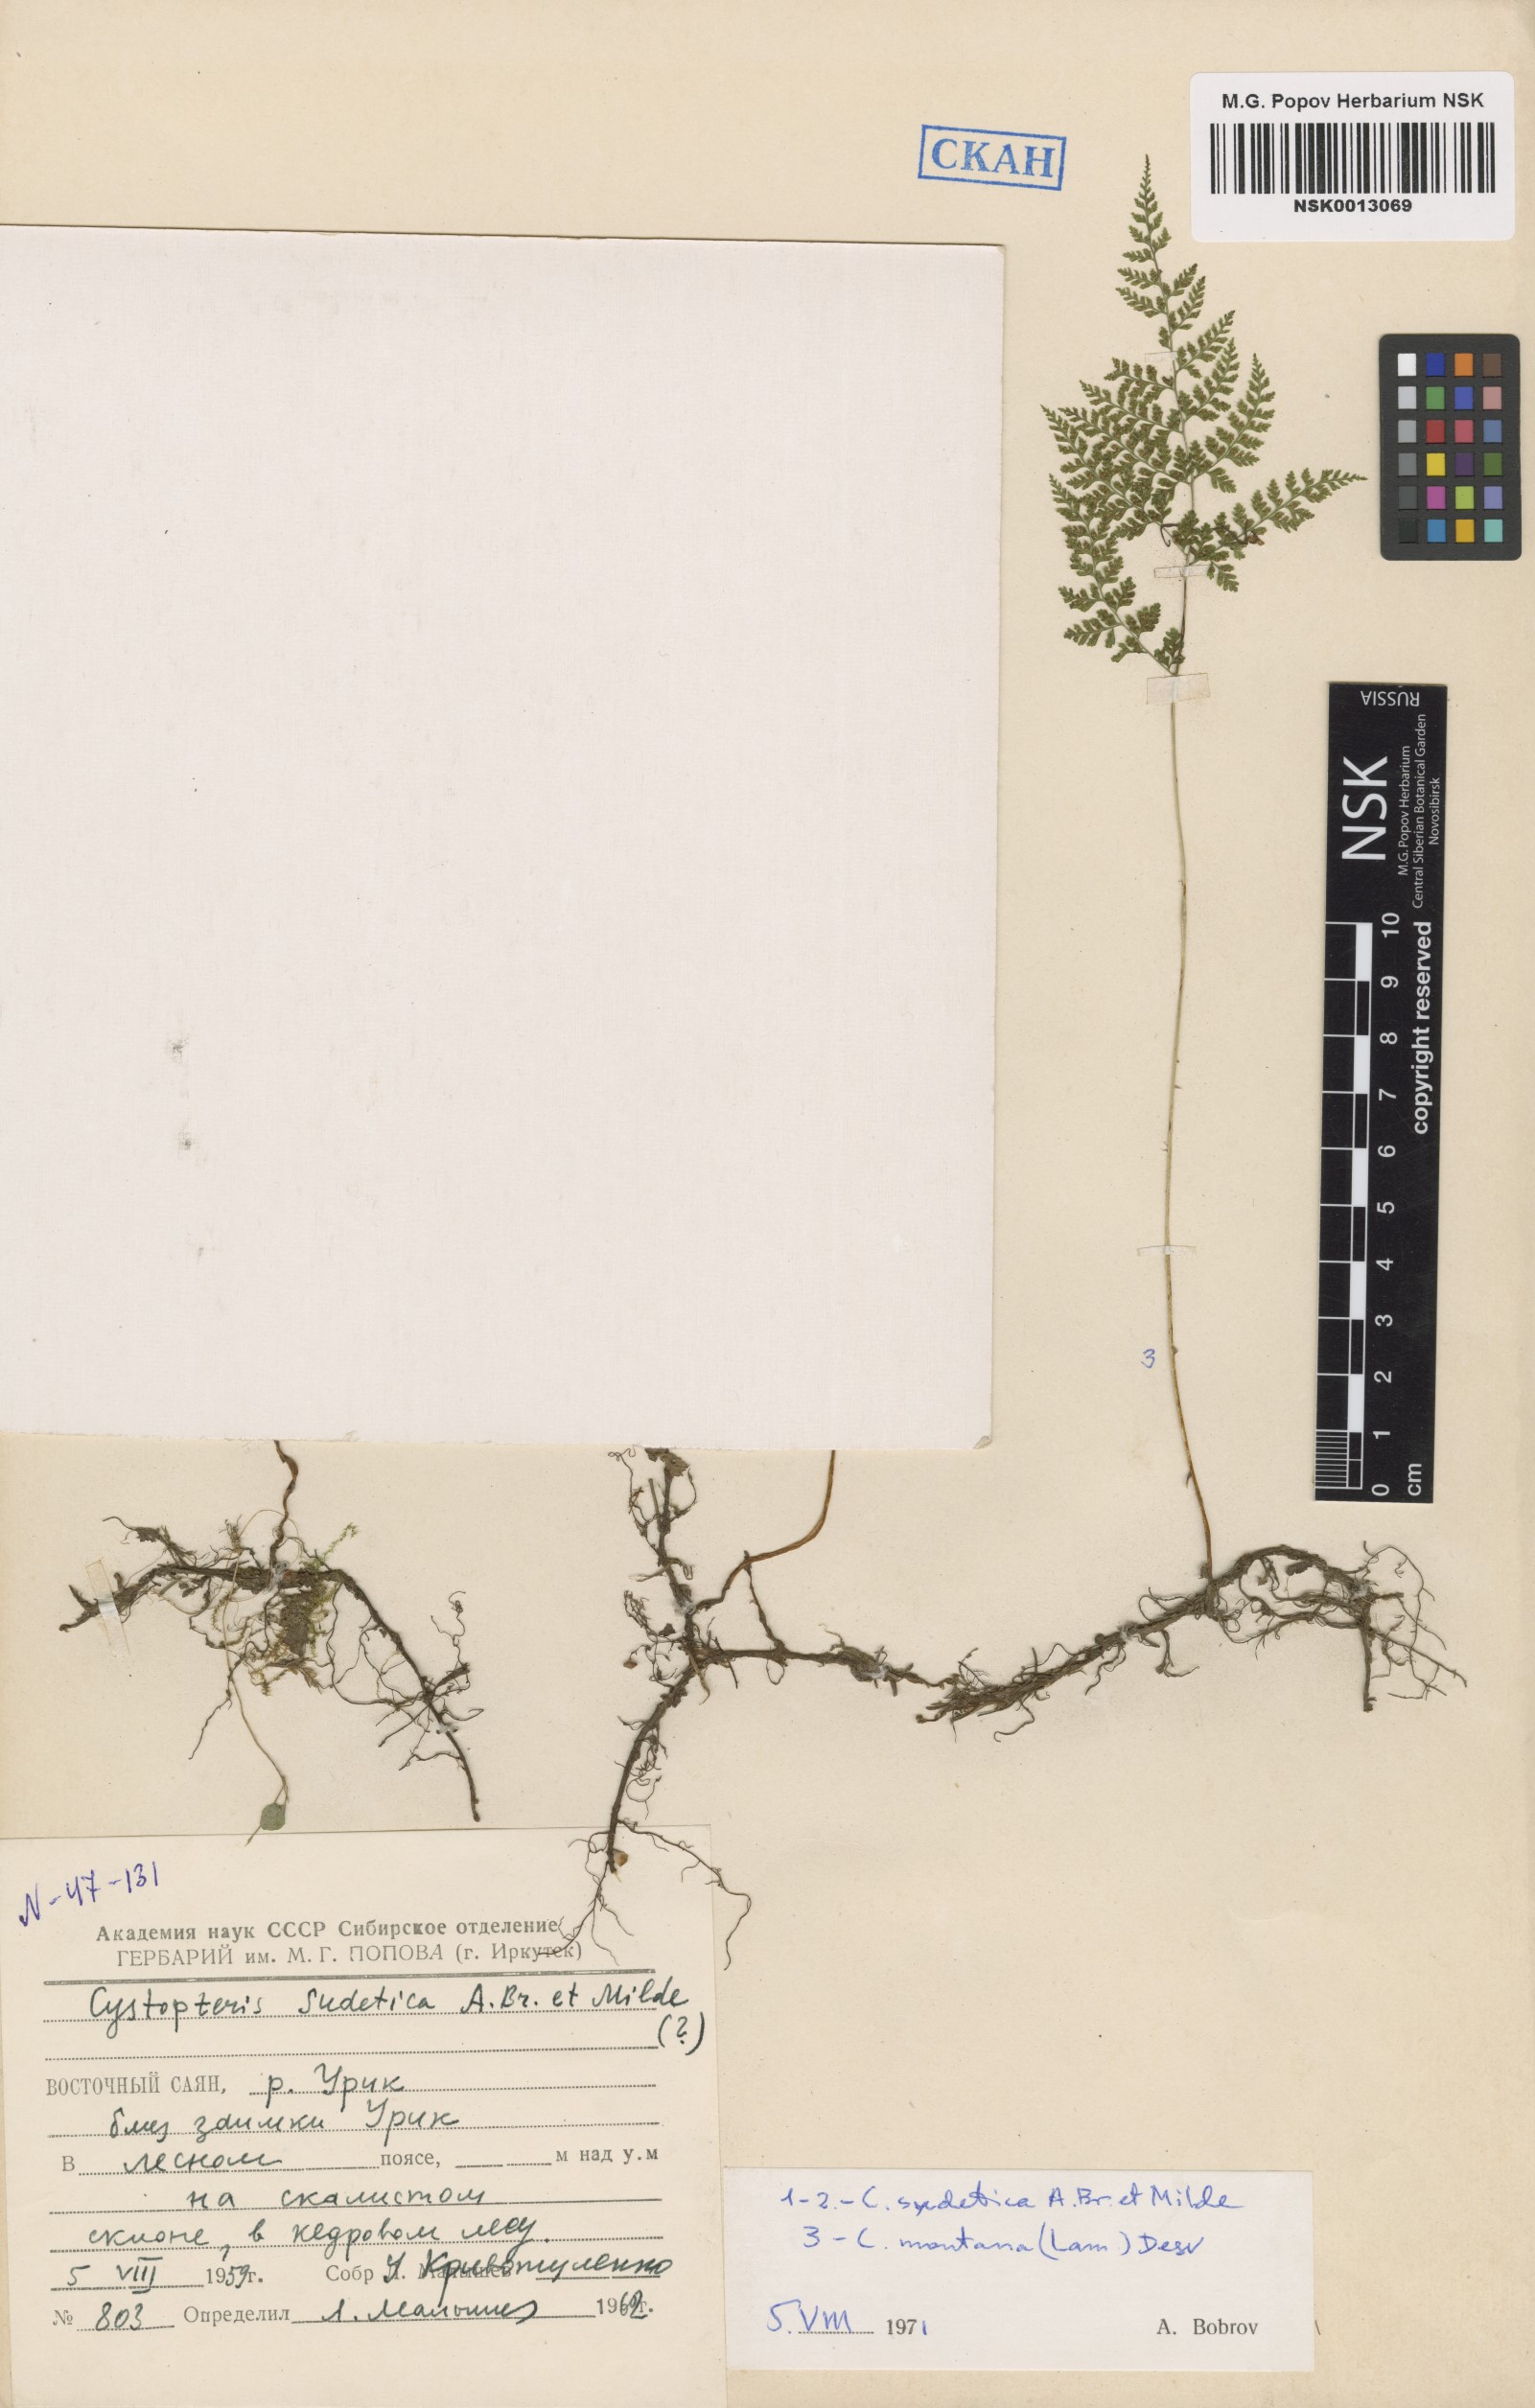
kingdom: Plantae
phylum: Tracheophyta
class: Polypodiopsida
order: Polypodiales
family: Cystopteridaceae
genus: Cystopteris
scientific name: Cystopteris montana
